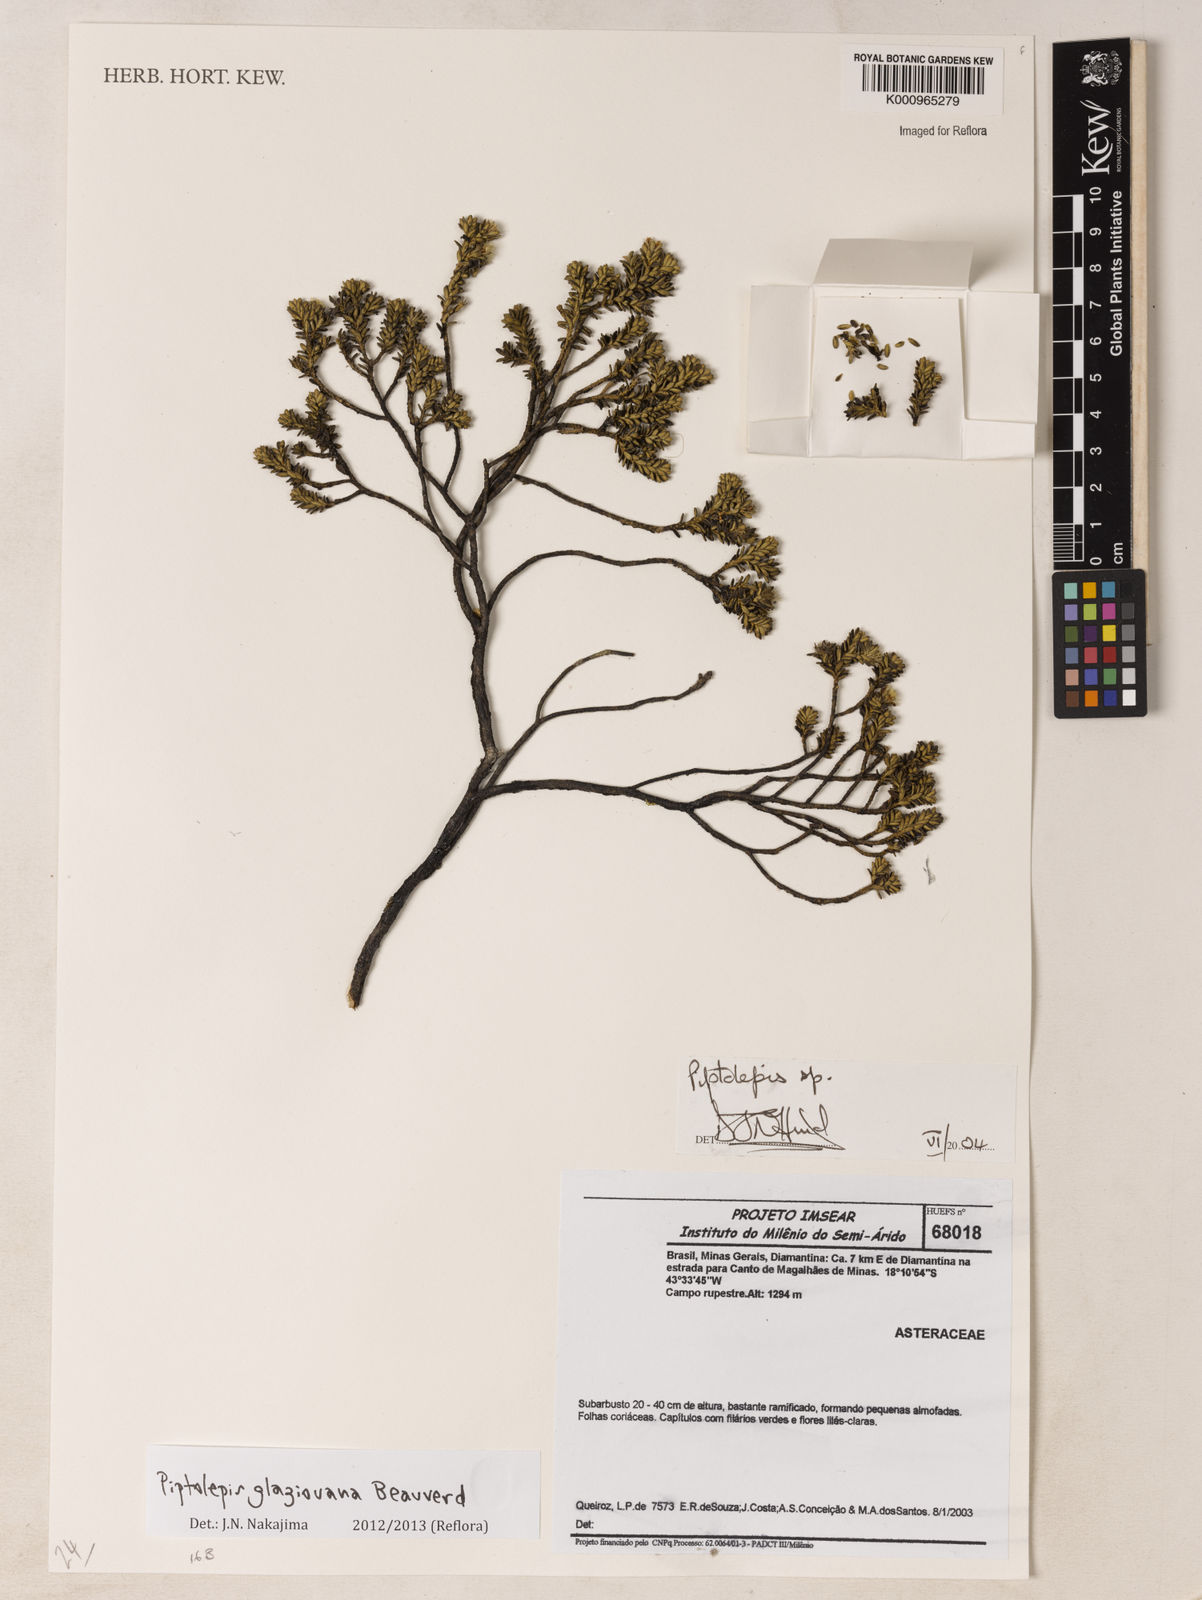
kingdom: Plantae
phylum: Tracheophyta
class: Magnoliopsida
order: Asterales
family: Asteraceae
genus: Piptolepis
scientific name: Piptolepis glaziouana
